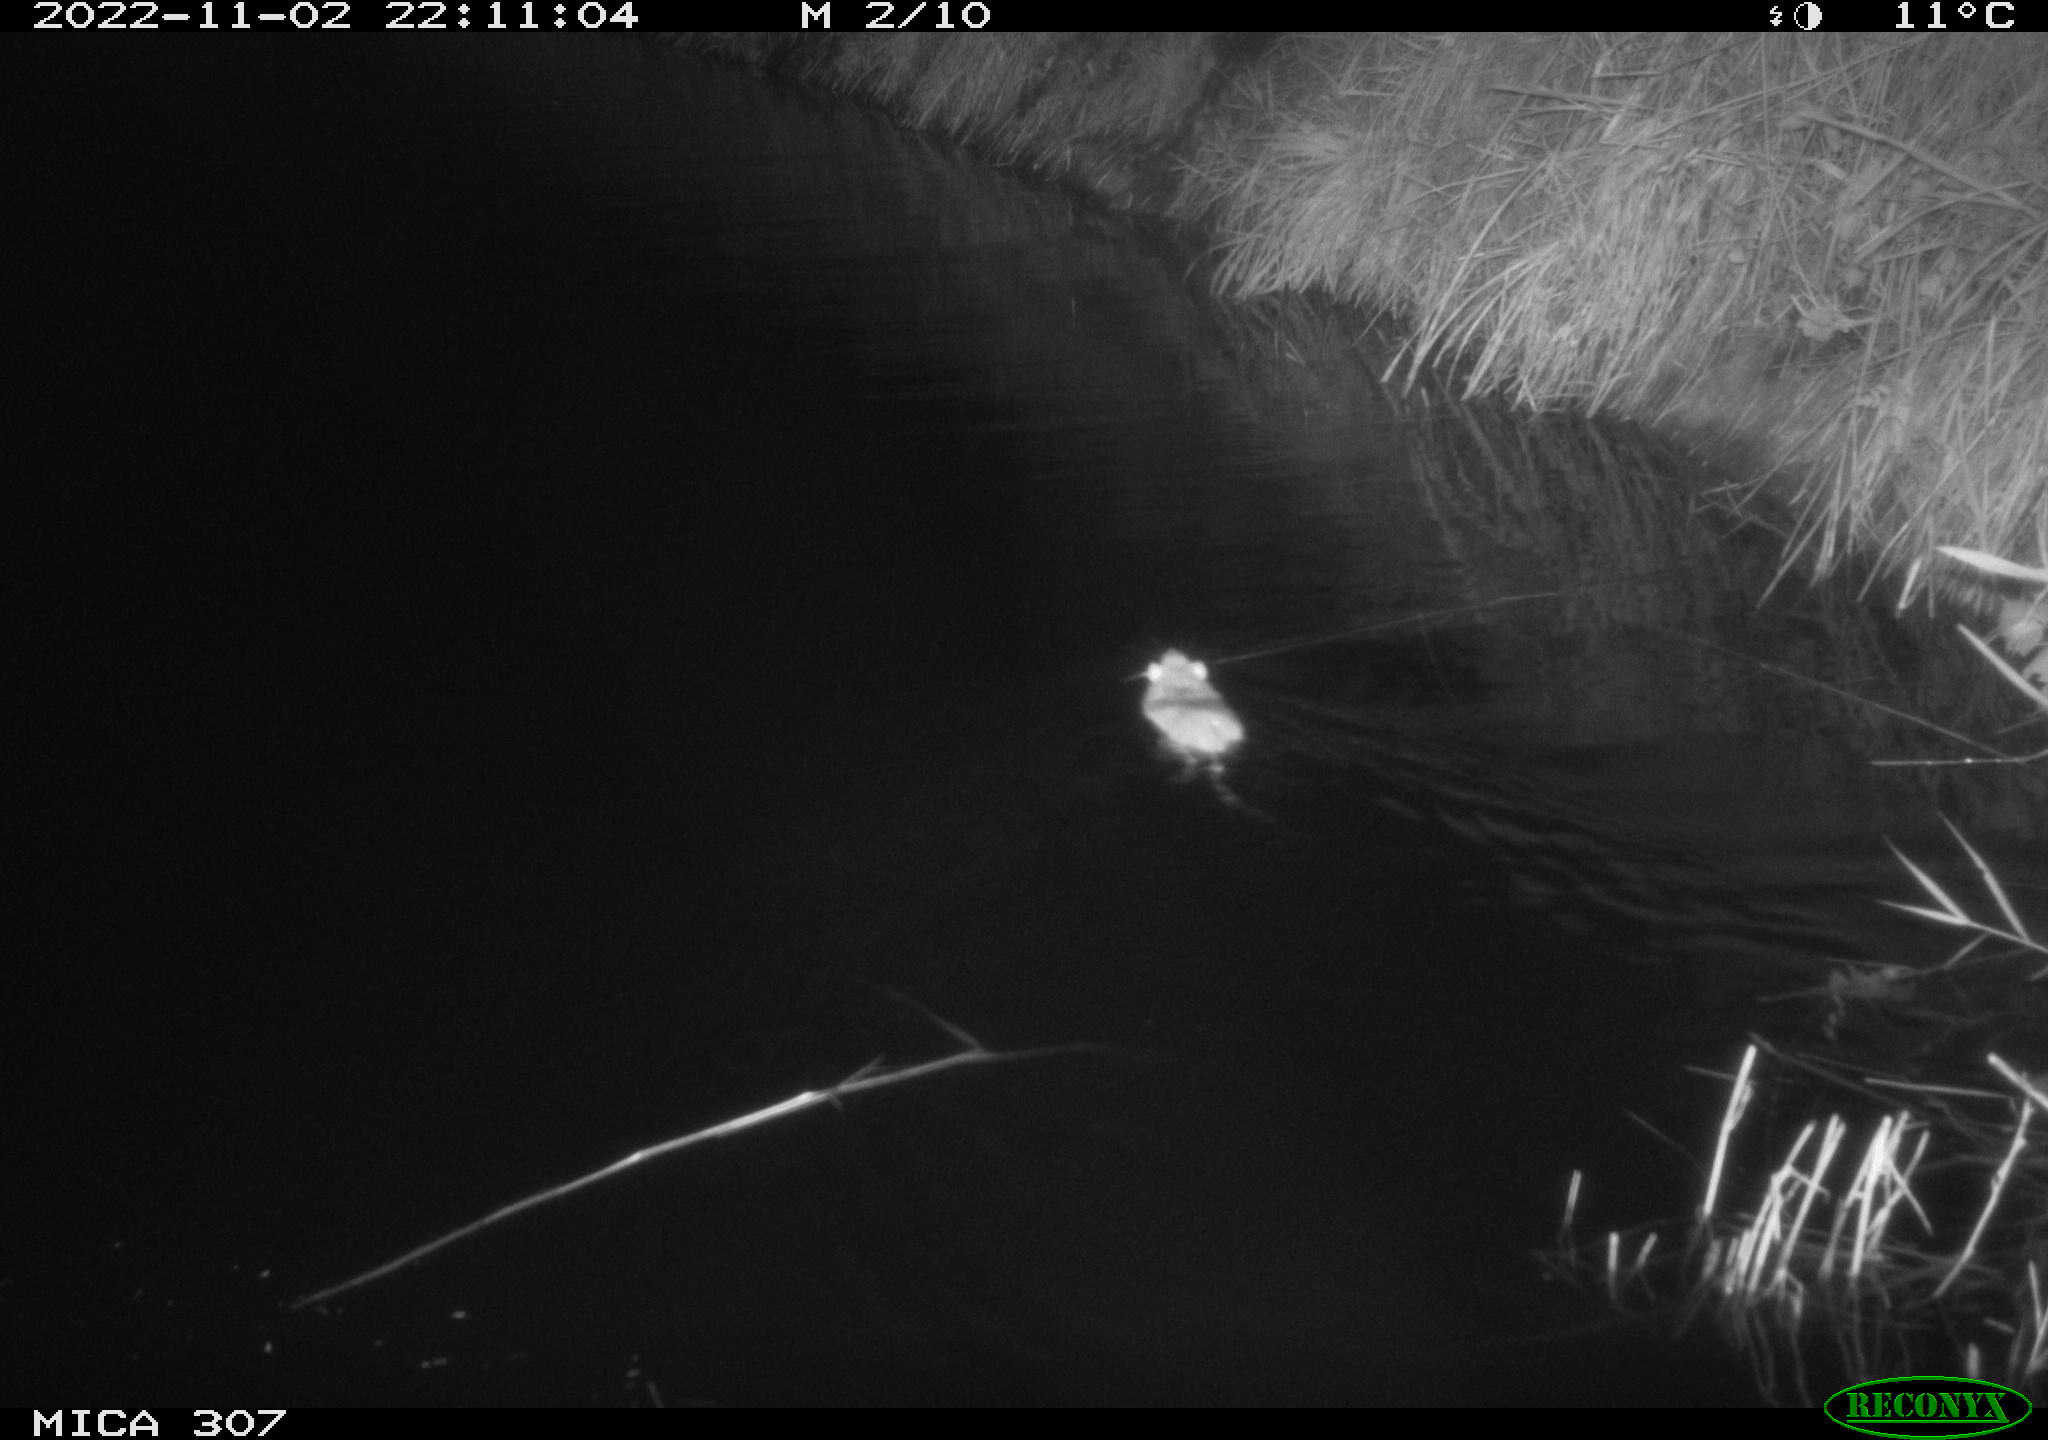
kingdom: Animalia
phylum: Chordata
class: Mammalia
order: Rodentia
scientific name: Rodentia
